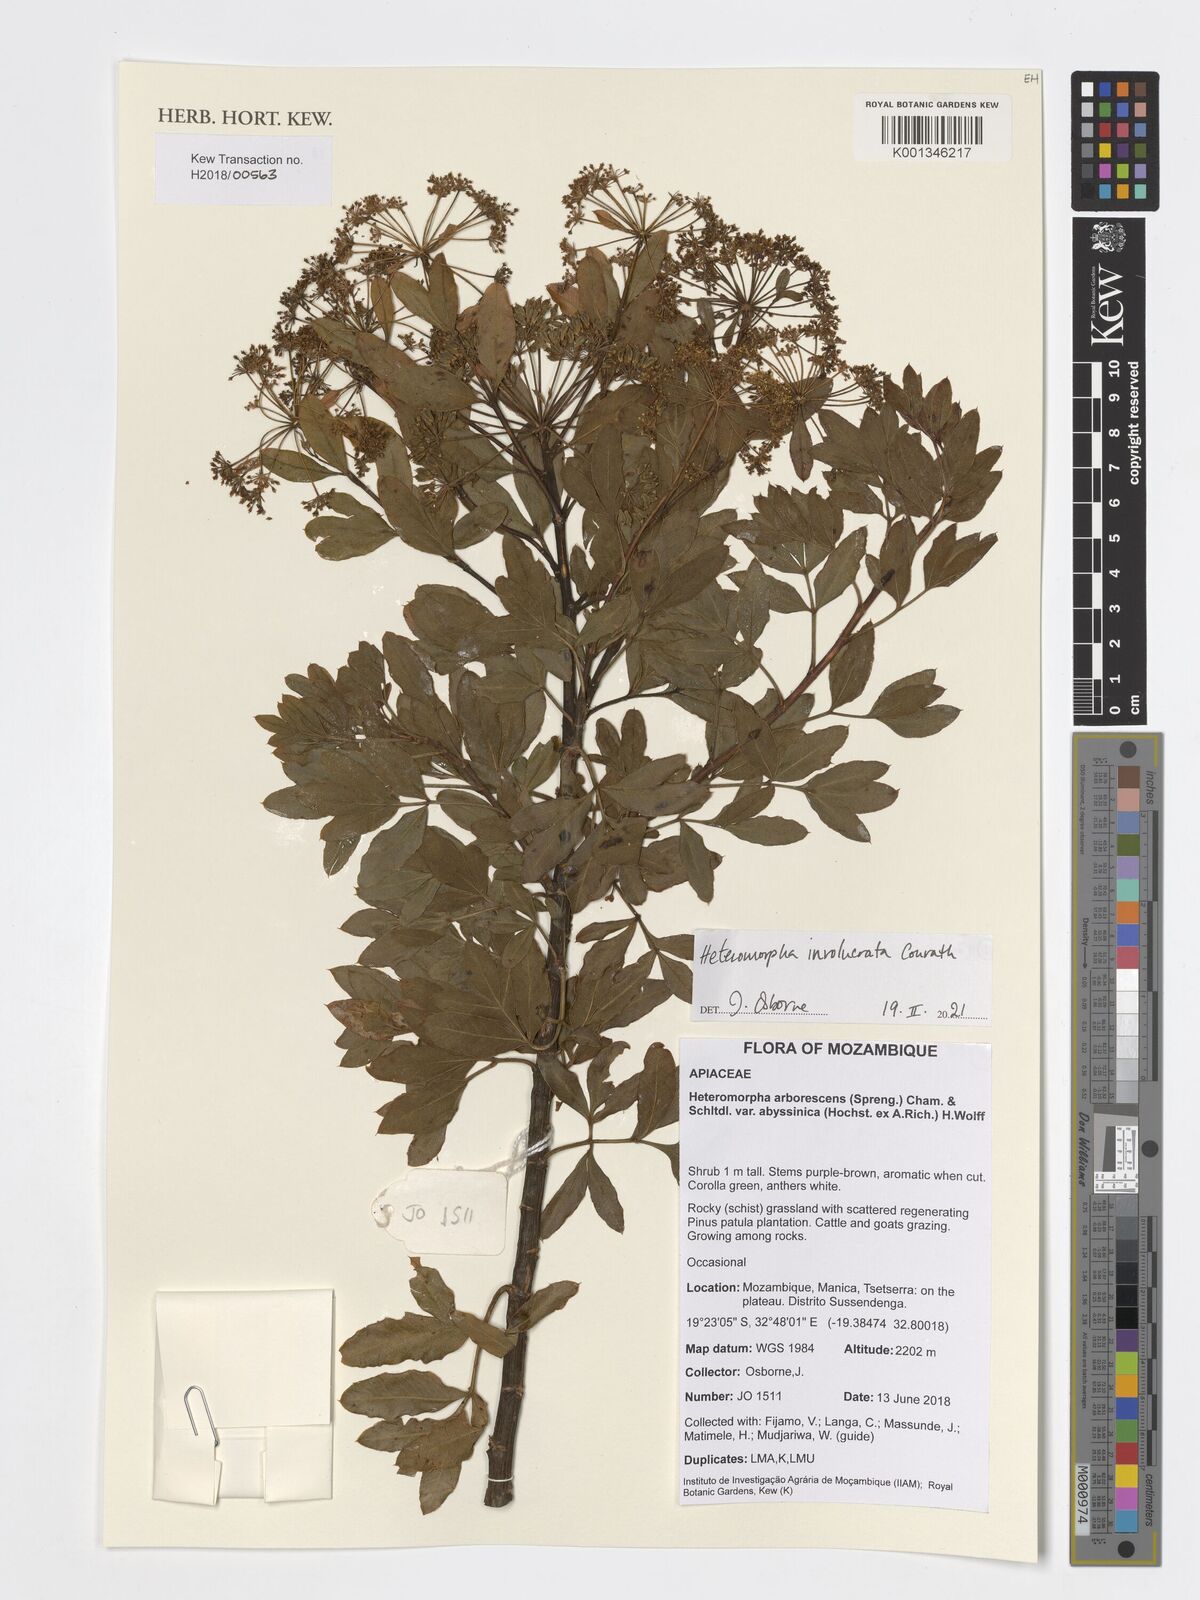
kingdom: Plantae
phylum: Tracheophyta
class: Magnoliopsida
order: Apiales
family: Apiaceae
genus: Heteromorpha
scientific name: Heteromorpha involucrata
